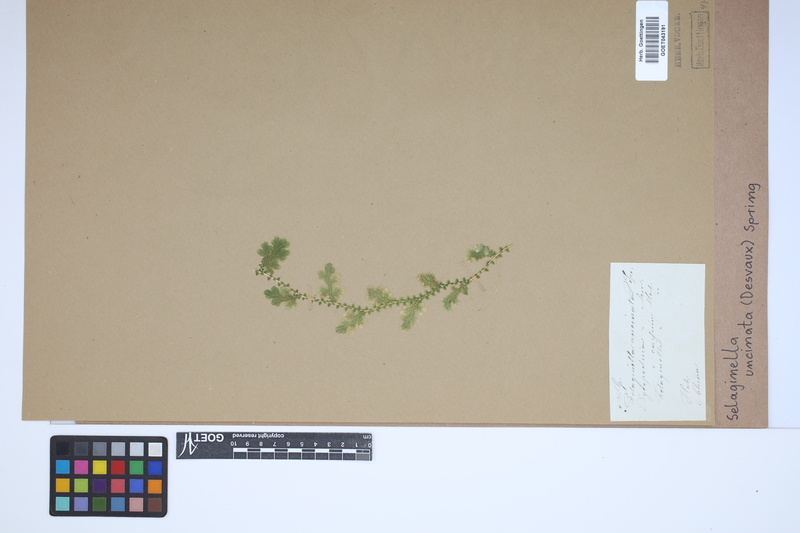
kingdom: Plantae
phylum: Tracheophyta
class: Lycopodiopsida
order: Selaginellales
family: Selaginellaceae
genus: Selaginella
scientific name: Selaginella uncinata
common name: Blue spikemoss
